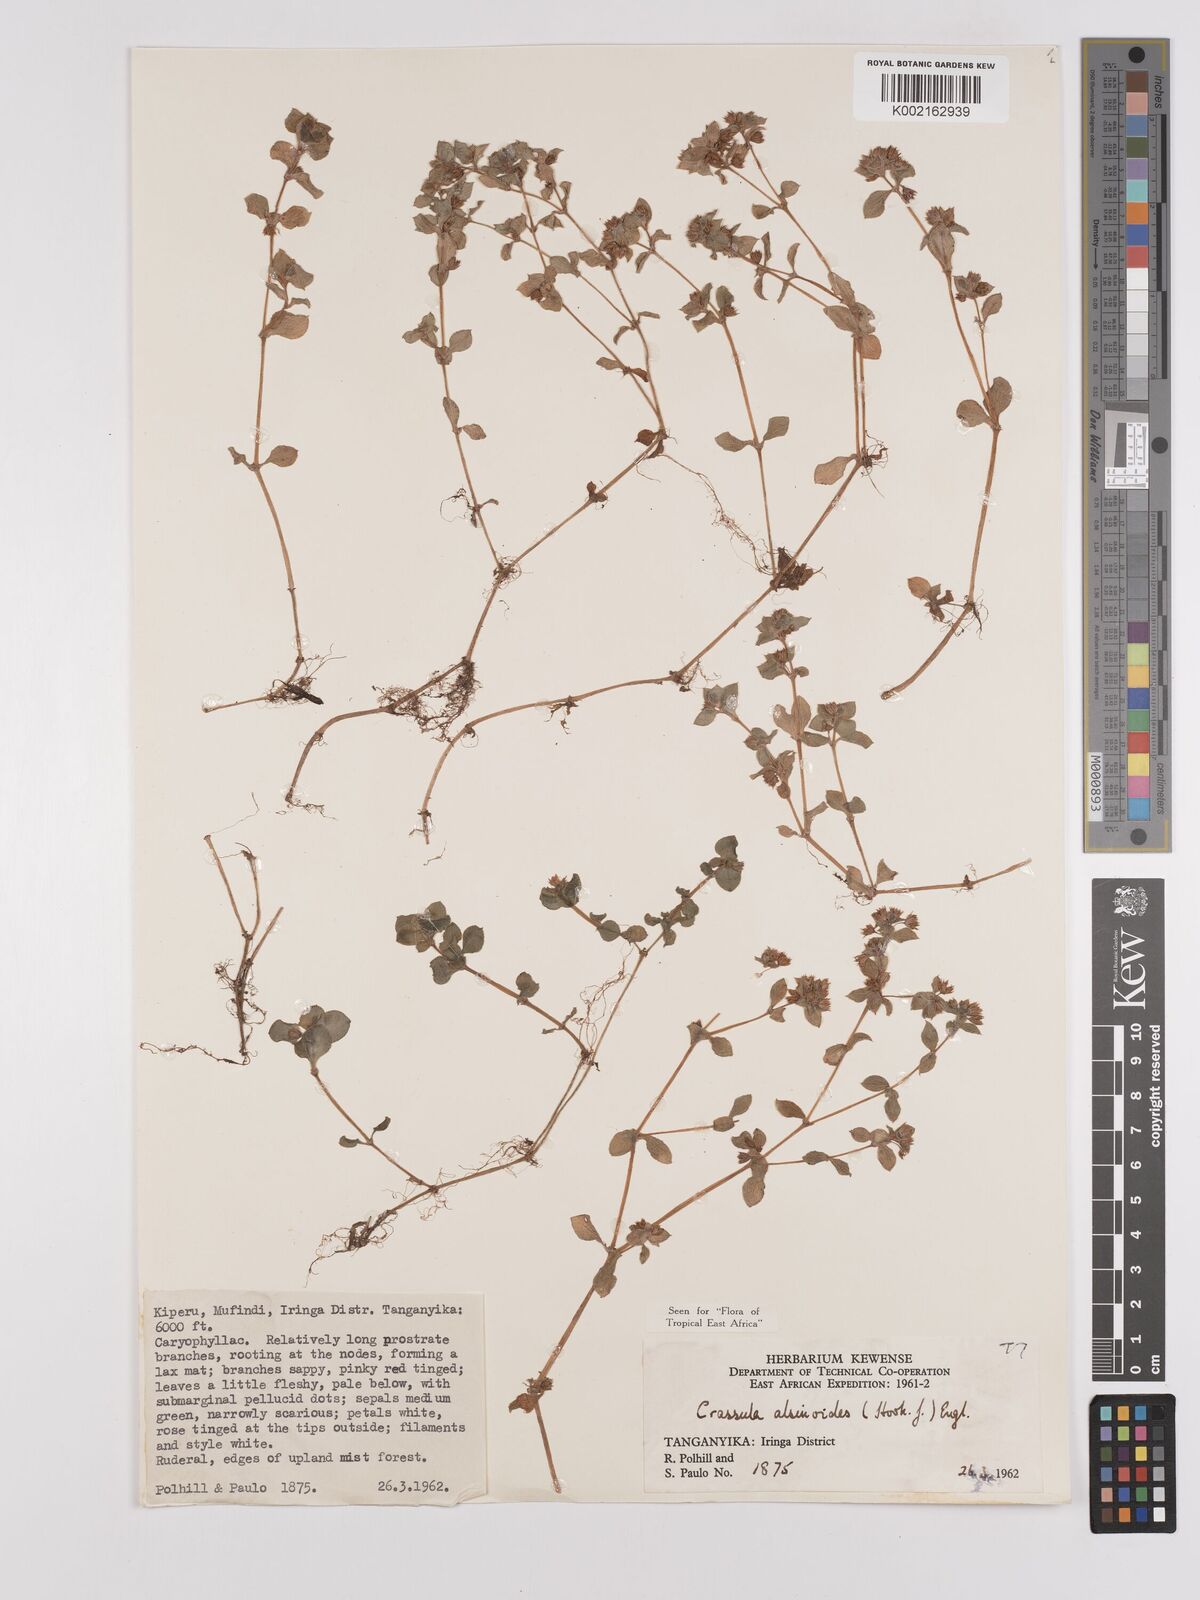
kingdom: Plantae
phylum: Tracheophyta
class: Magnoliopsida
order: Saxifragales
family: Crassulaceae
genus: Crassula
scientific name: Crassula alsinoides
